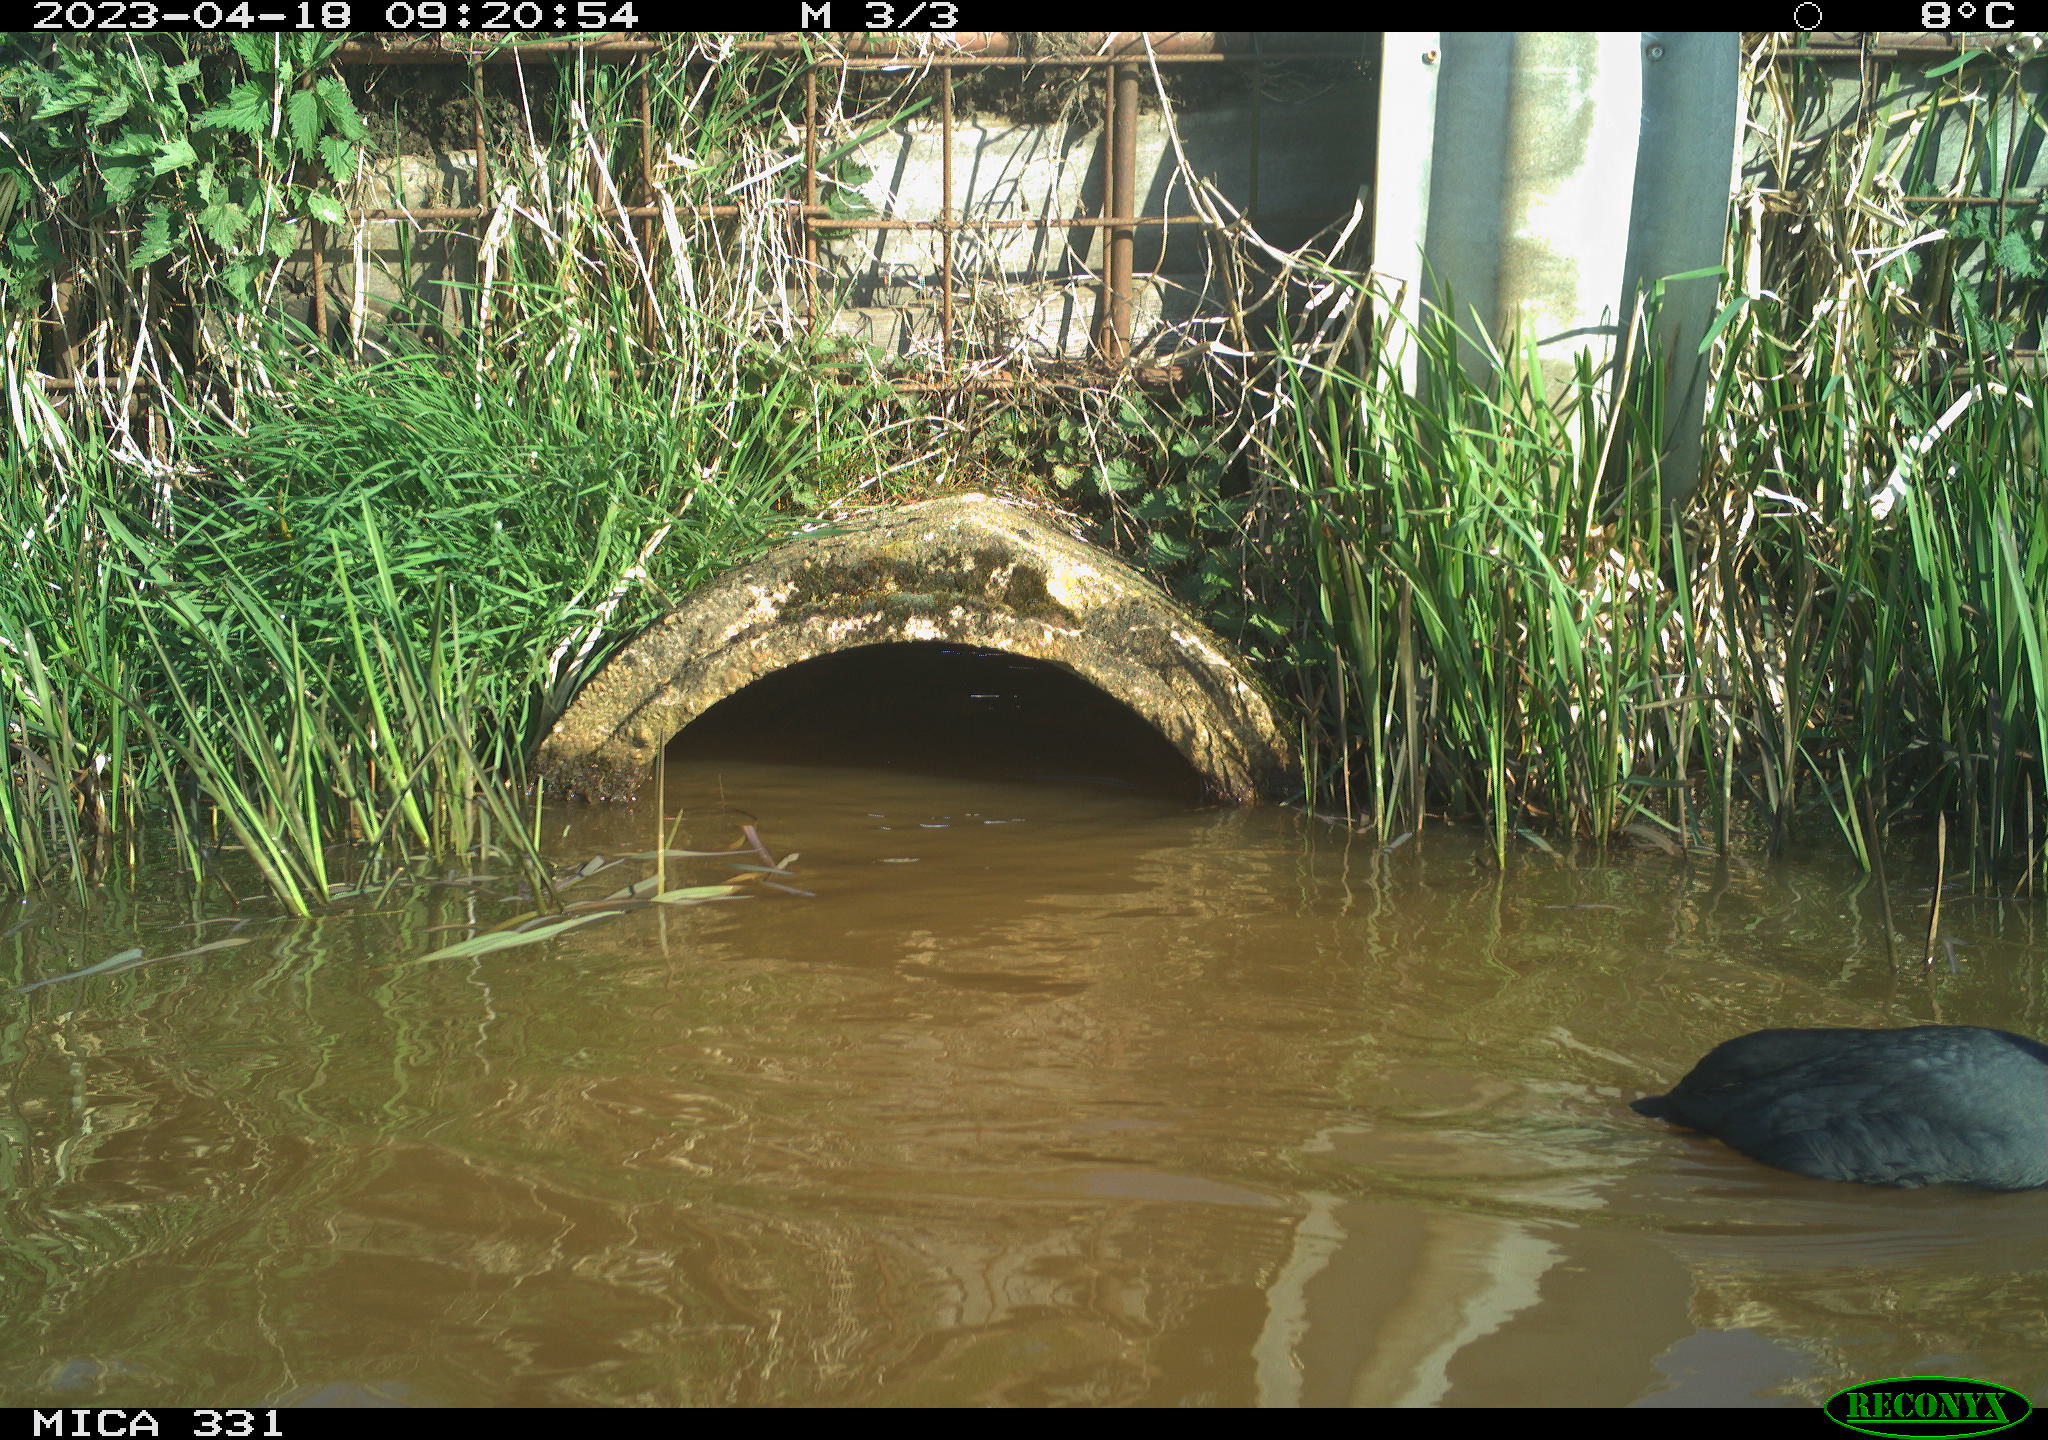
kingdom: Animalia
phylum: Chordata
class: Aves
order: Gruiformes
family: Rallidae
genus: Fulica
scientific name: Fulica atra
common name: Eurasian coot
